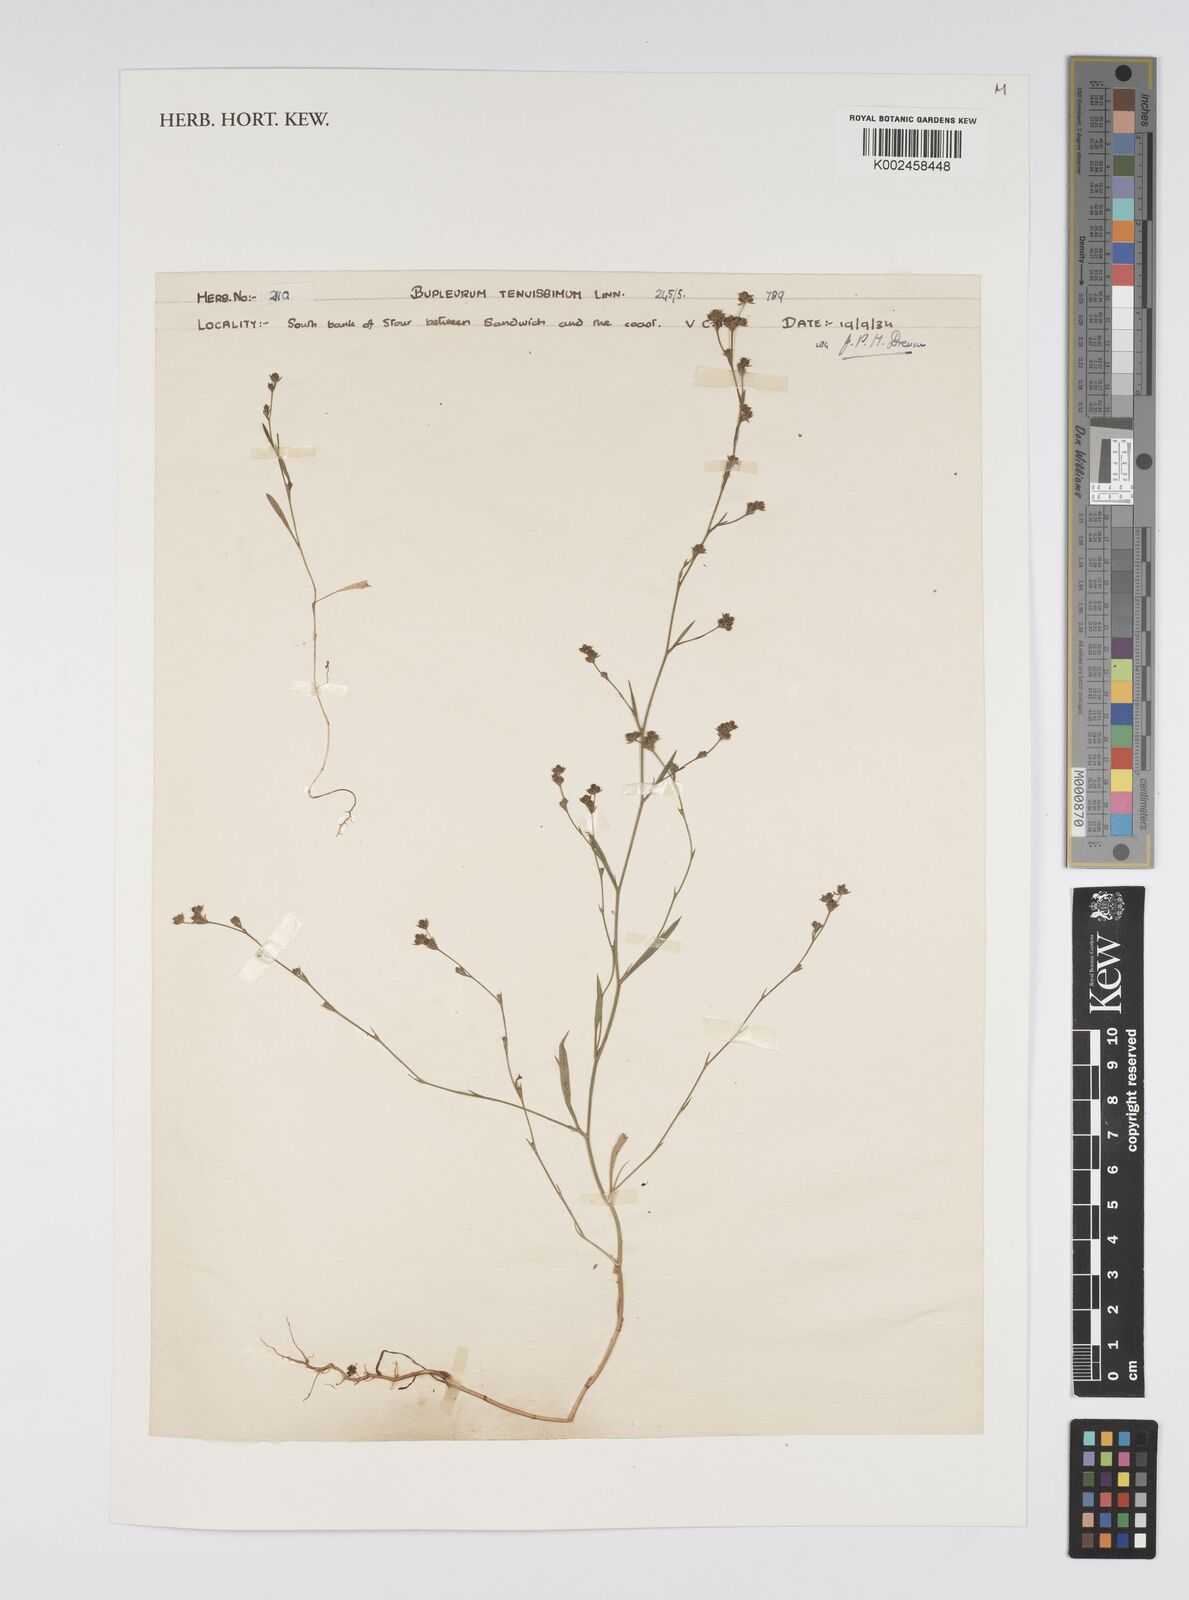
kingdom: Plantae
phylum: Tracheophyta
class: Magnoliopsida
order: Apiales
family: Apiaceae
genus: Bupleurum
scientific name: Bupleurum tenuissimum
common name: Slender hare's-ear
